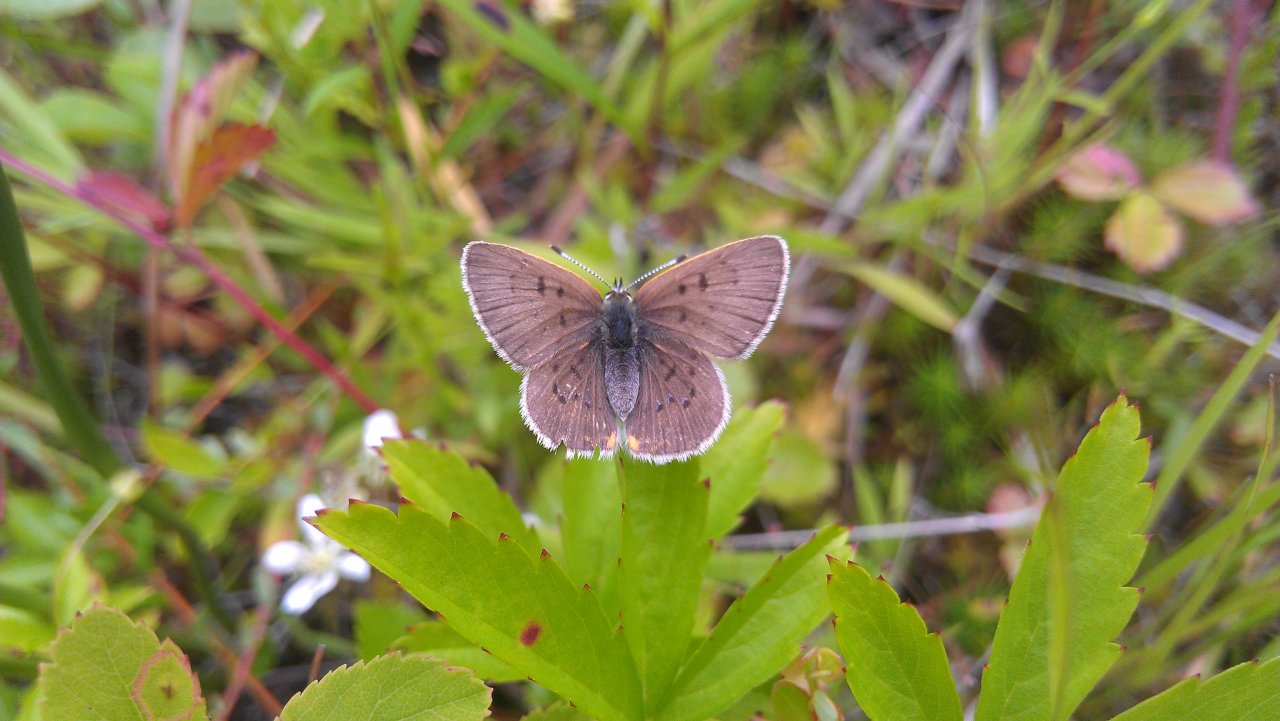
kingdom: Animalia
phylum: Arthropoda
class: Insecta
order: Lepidoptera
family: Sesiidae
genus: Sesia
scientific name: Sesia Lycaena epixanthe
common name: Bog Copper
